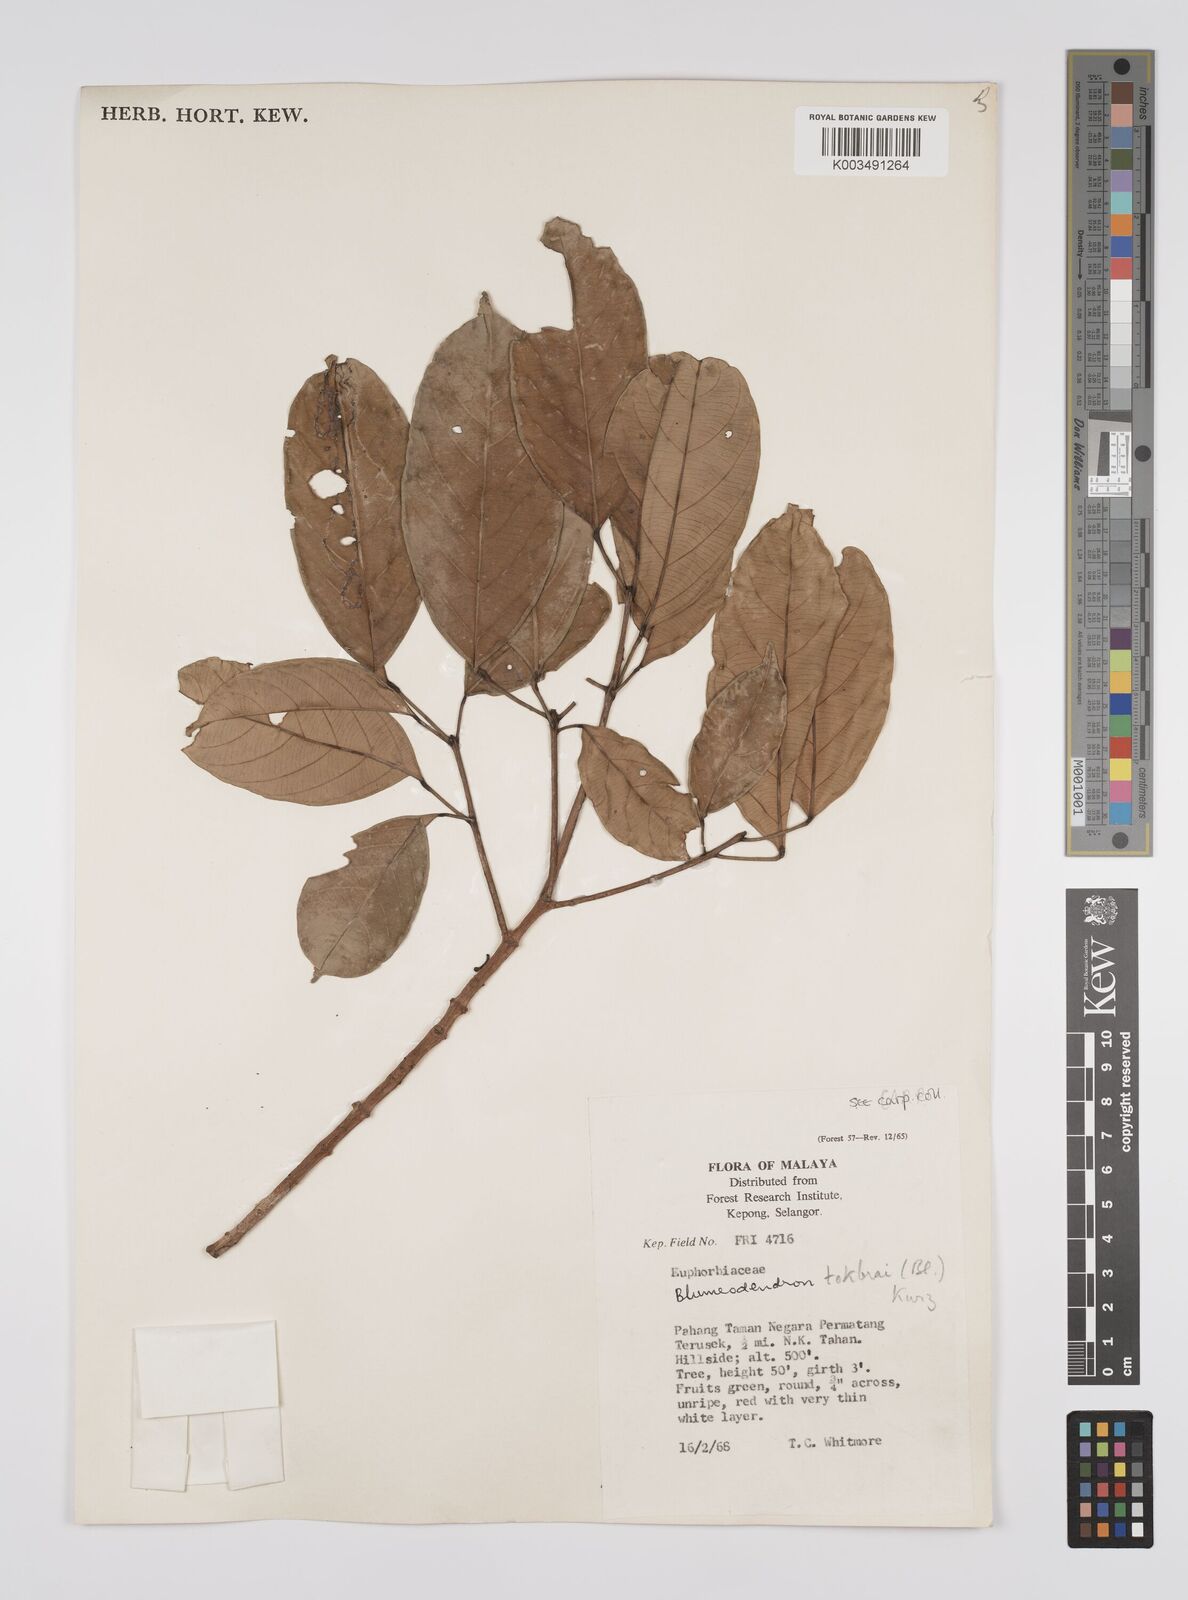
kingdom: Plantae
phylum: Tracheophyta
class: Magnoliopsida
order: Malpighiales
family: Euphorbiaceae
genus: Blumeodendron
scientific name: Blumeodendron tokbrai
